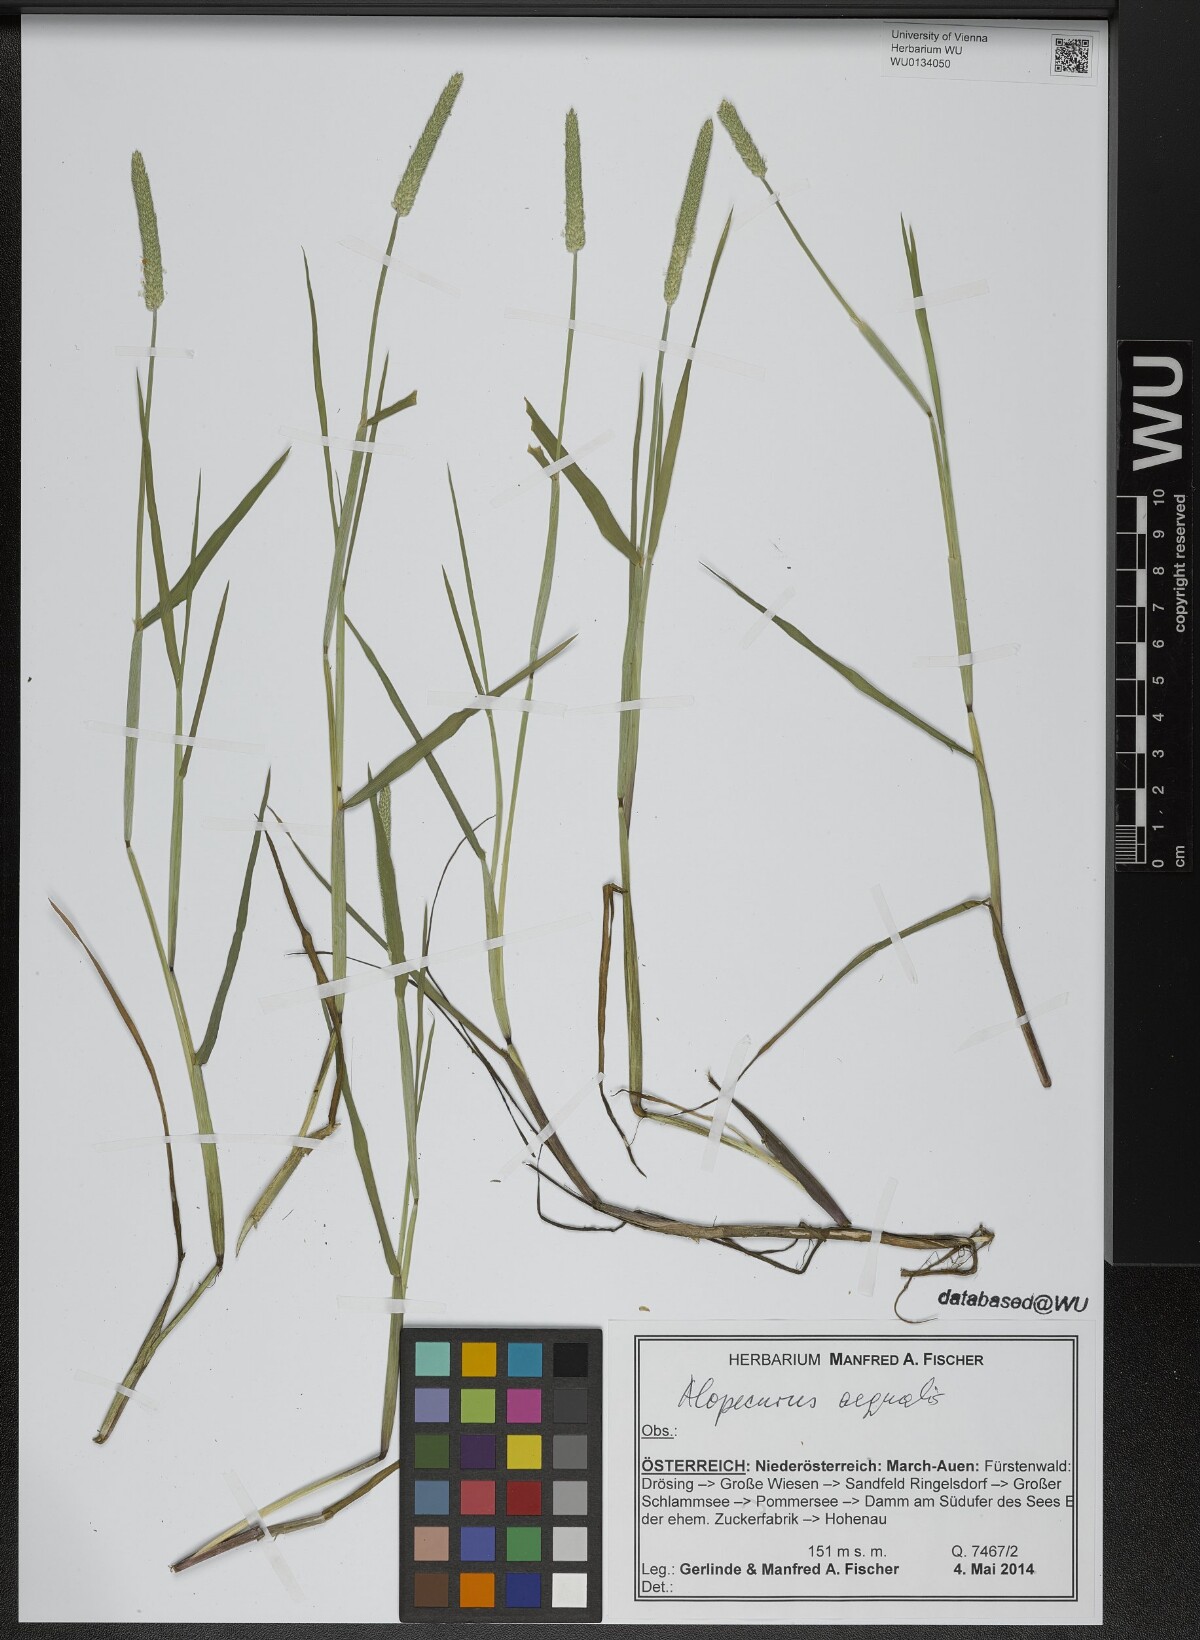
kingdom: Plantae
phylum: Tracheophyta
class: Liliopsida
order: Poales
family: Poaceae
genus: Alopecurus
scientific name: Alopecurus aequalis
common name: Orange foxtail
